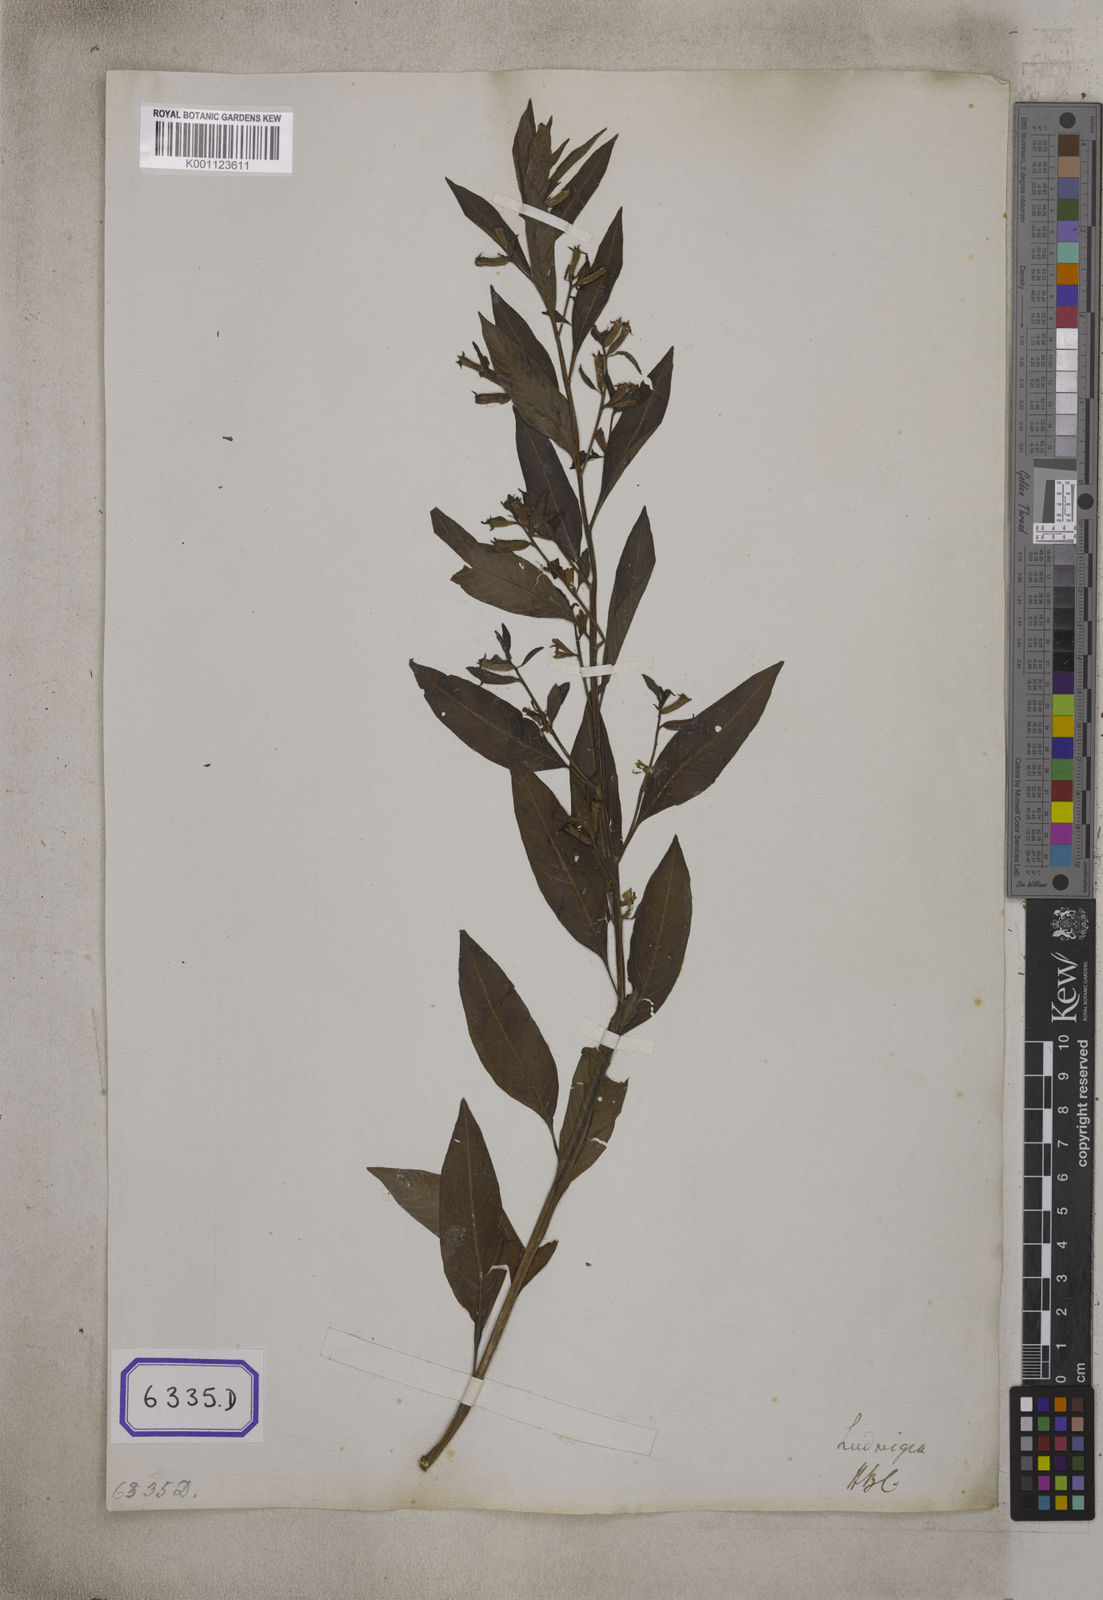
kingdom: Plantae
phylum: Tracheophyta
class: Magnoliopsida
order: Myrtales
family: Onagraceae
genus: Ludwigia
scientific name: Ludwigia perennis
